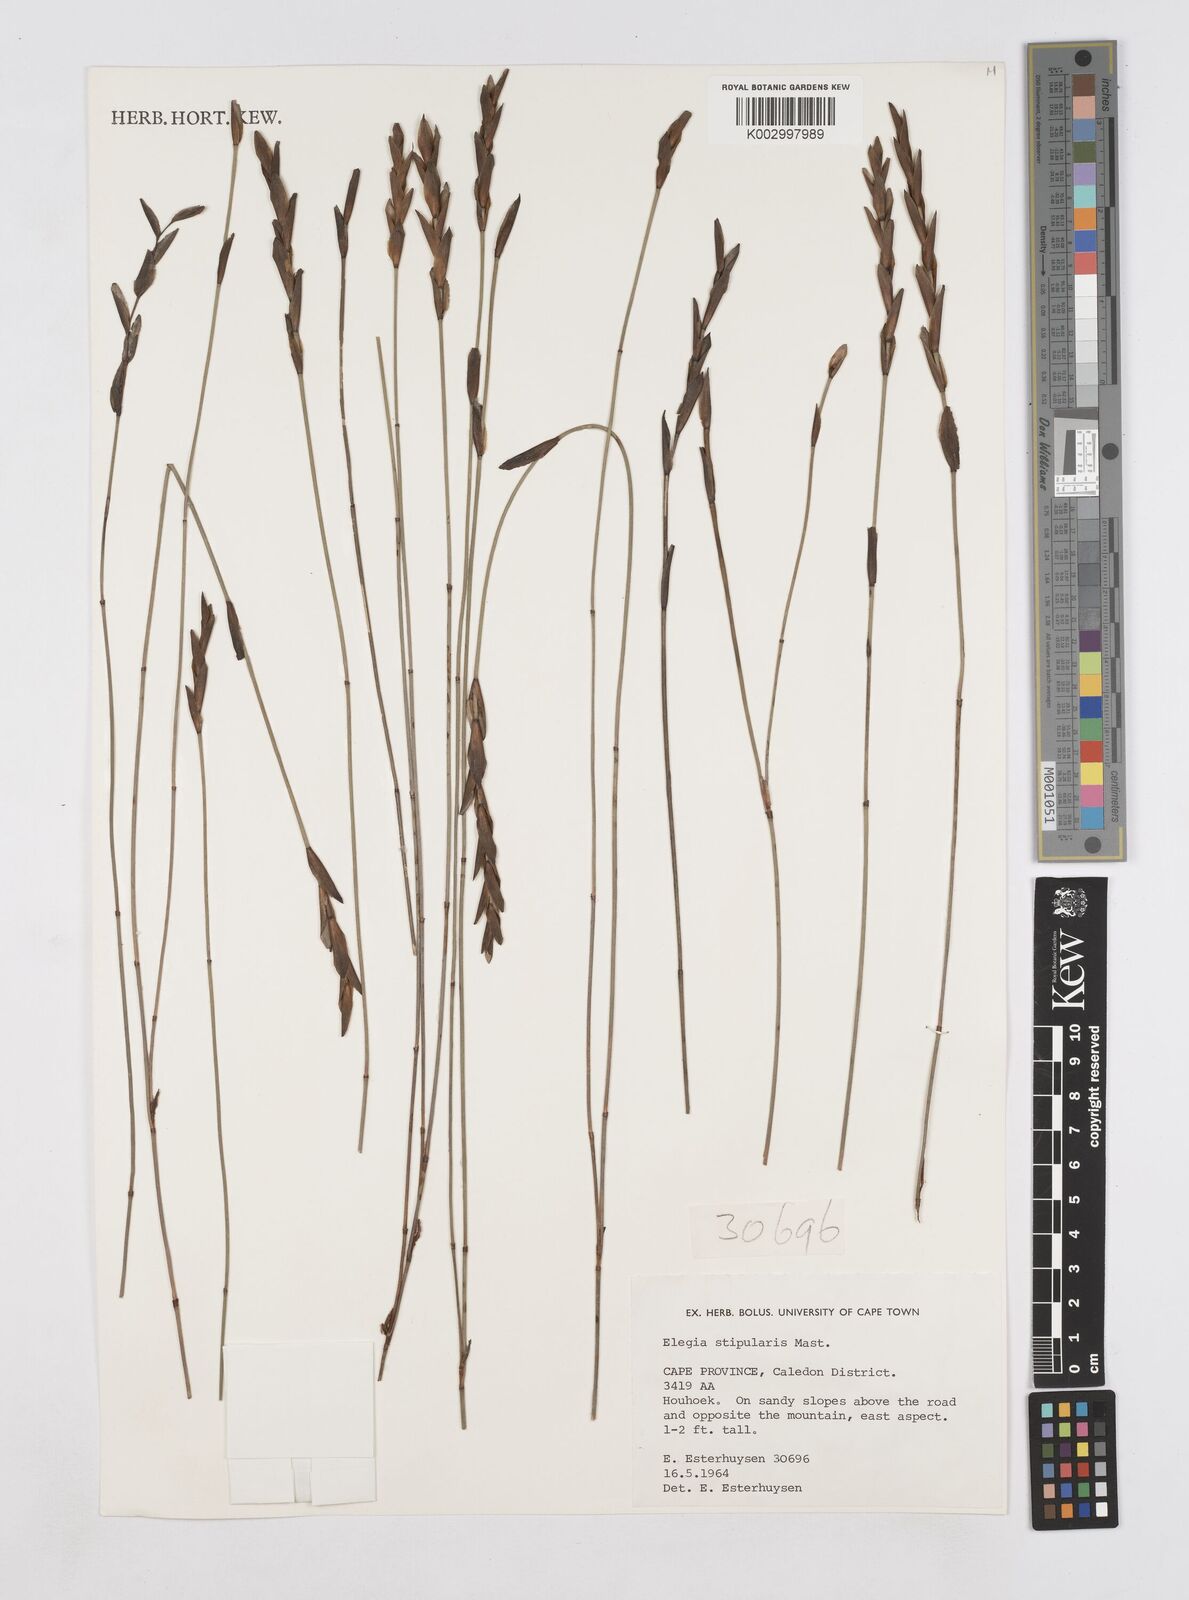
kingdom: Plantae
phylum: Tracheophyta
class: Liliopsida
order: Poales
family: Restionaceae
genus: Elegia
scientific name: Elegia stipularis
